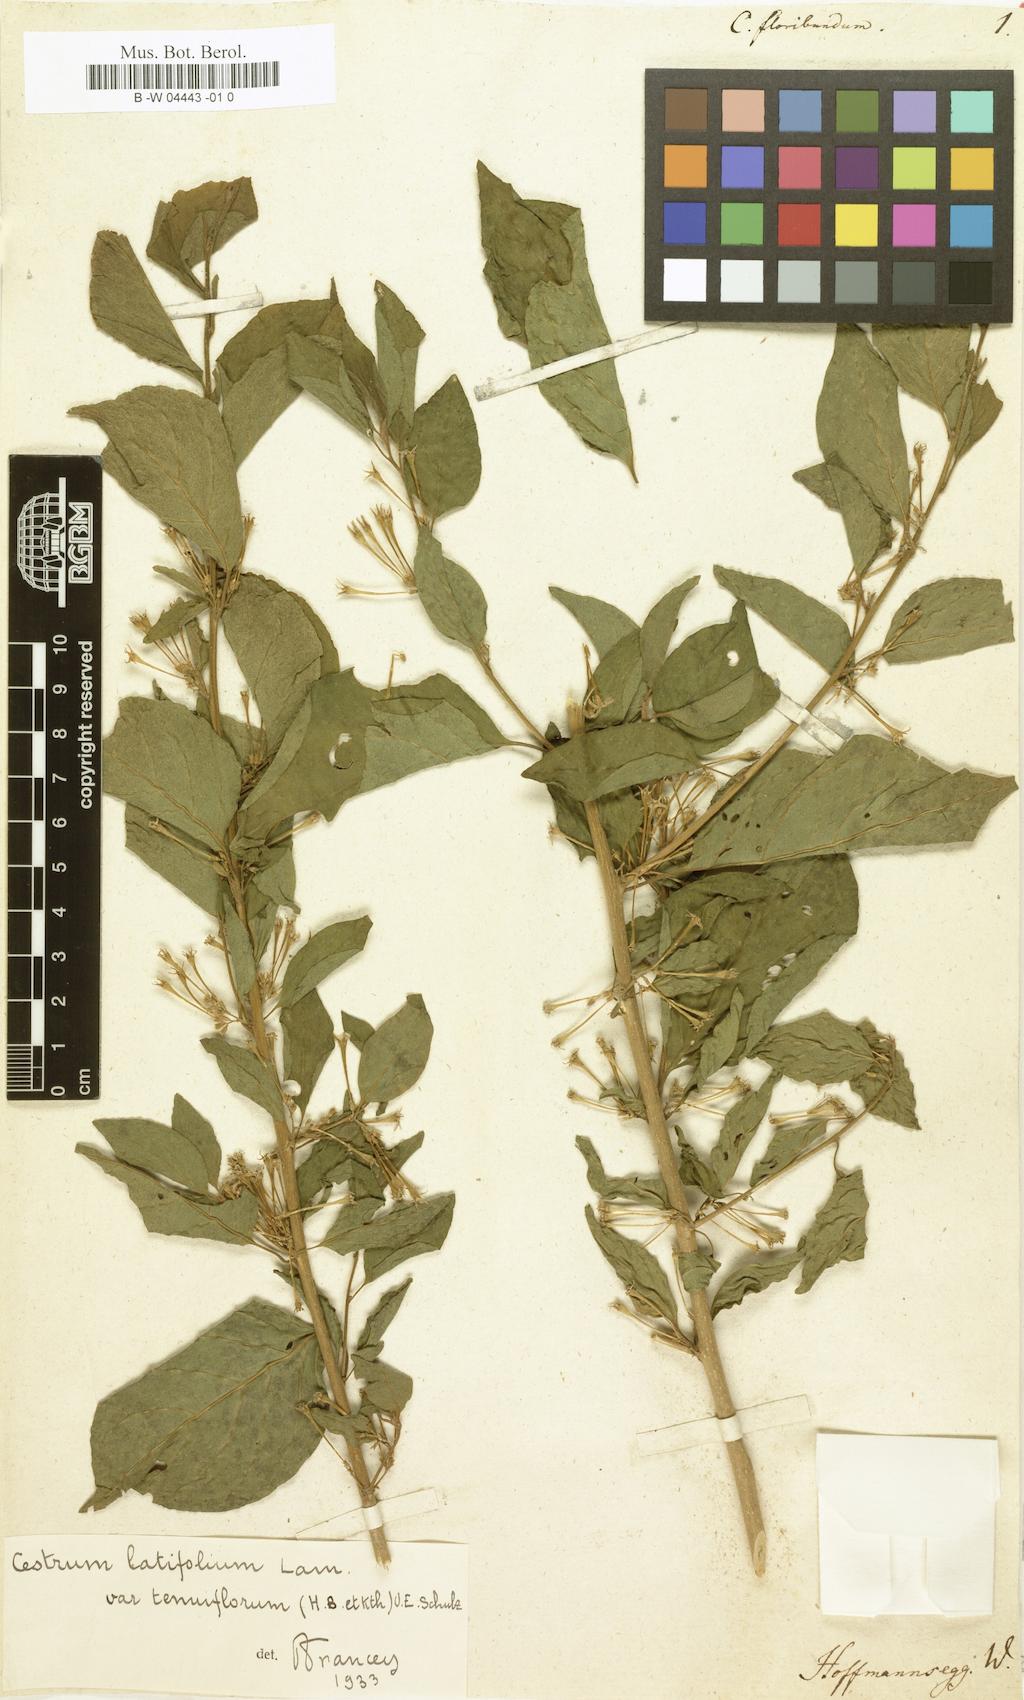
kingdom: Plantae
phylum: Tracheophyta
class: Magnoliopsida
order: Solanales
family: Solanaceae
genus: Cestrum
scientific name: Cestrum floribundum
